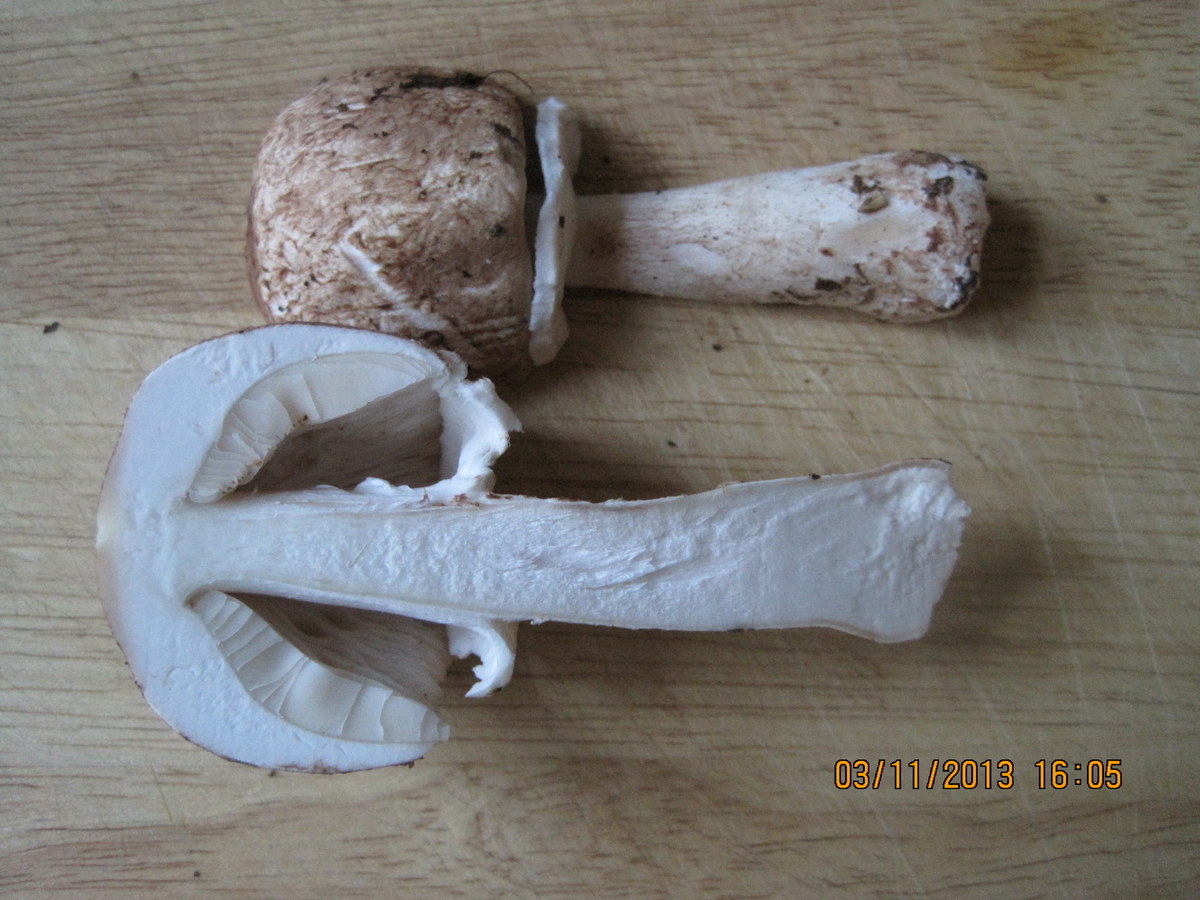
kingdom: Fungi
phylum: Basidiomycota
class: Agaricomycetes
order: Agaricales
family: Agaricaceae
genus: Agaricus
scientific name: Agaricus impudicus
